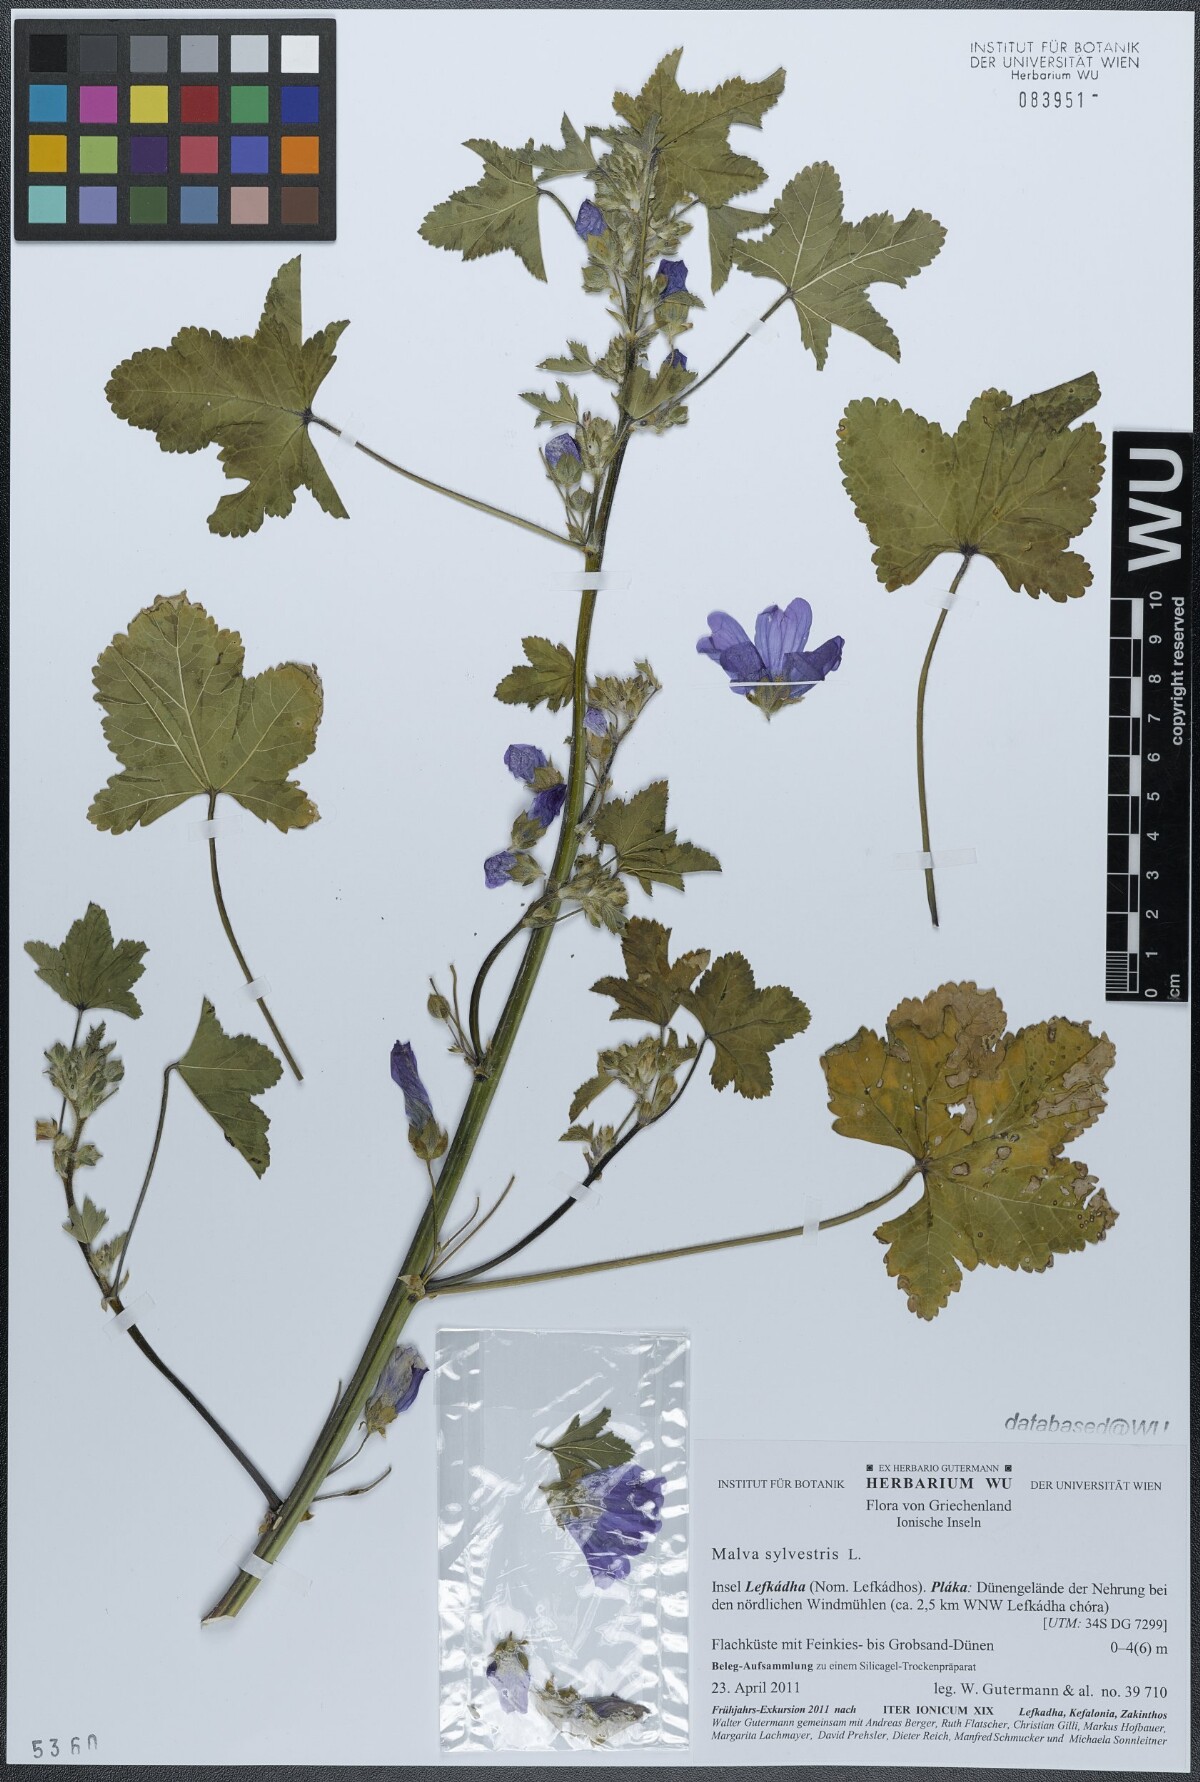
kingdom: Plantae
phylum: Tracheophyta
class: Magnoliopsida
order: Malvales
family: Malvaceae
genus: Malva
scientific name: Malva sylvestris
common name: Common mallow
